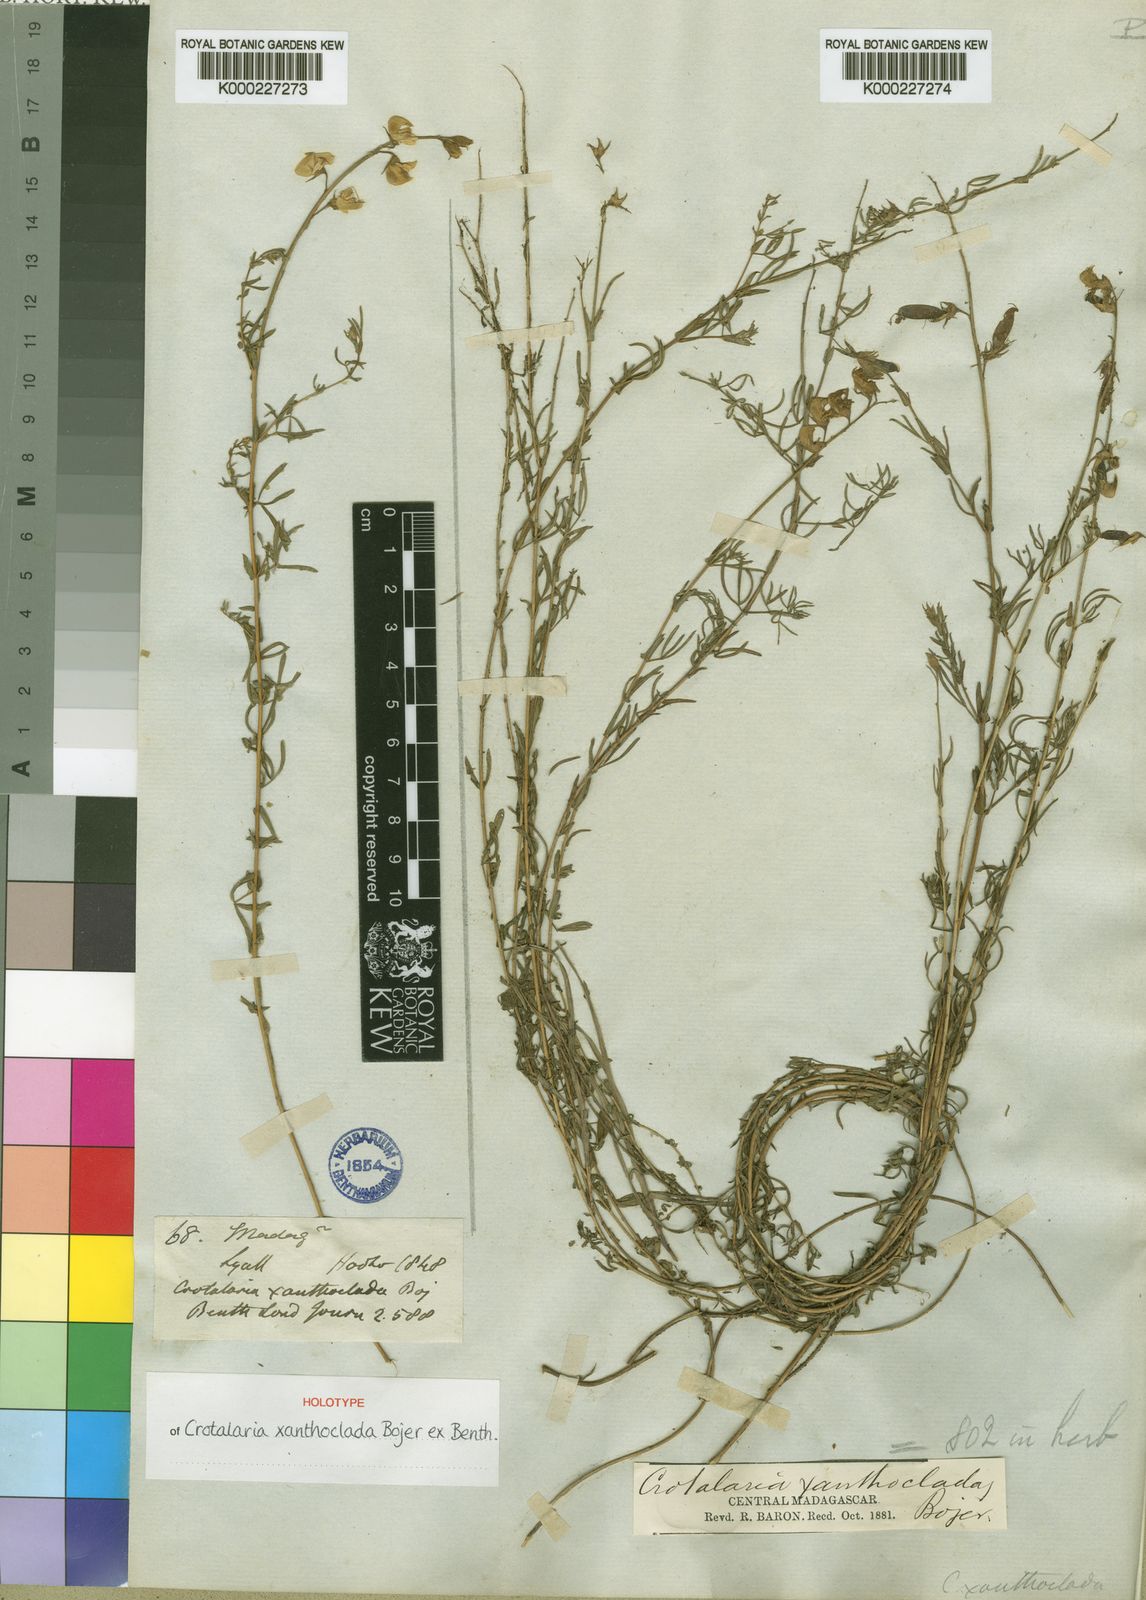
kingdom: Plantae
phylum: Tracheophyta
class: Magnoliopsida
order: Fabales
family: Fabaceae
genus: Crotalaria
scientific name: Crotalaria xanthoclada
